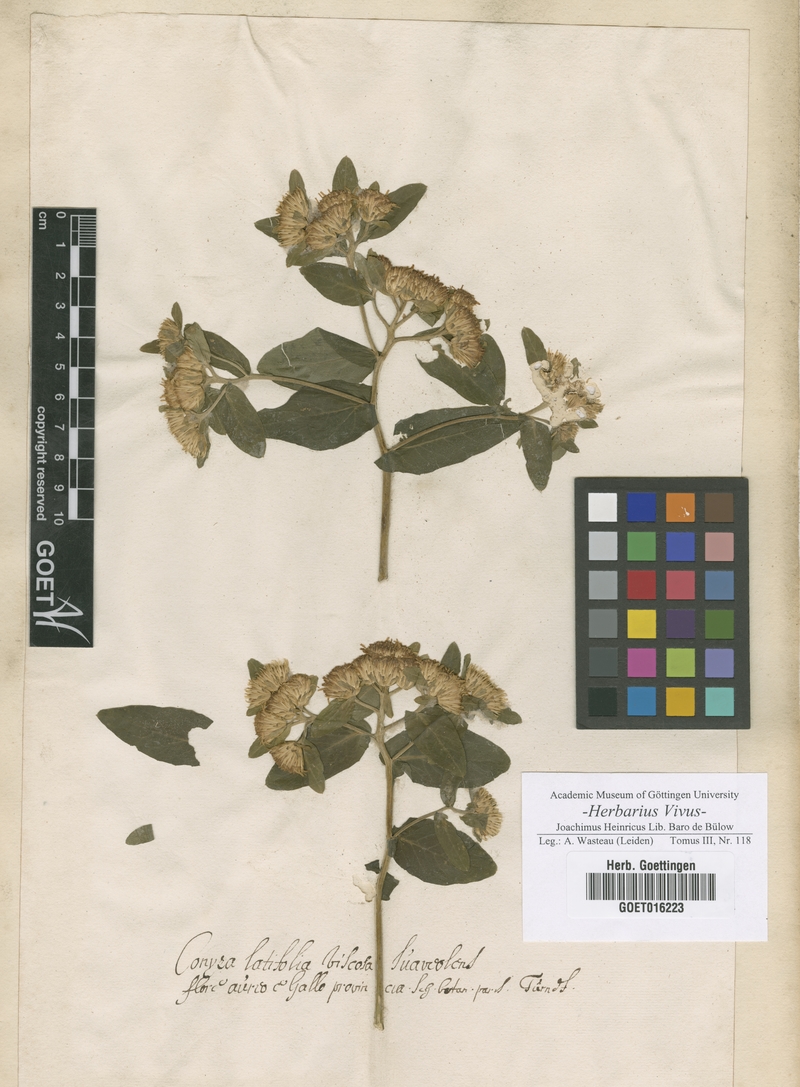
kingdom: Plantae
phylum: Tracheophyta
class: Magnoliopsida
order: Asterales
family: Asteraceae
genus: Conyza
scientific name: Conyza
